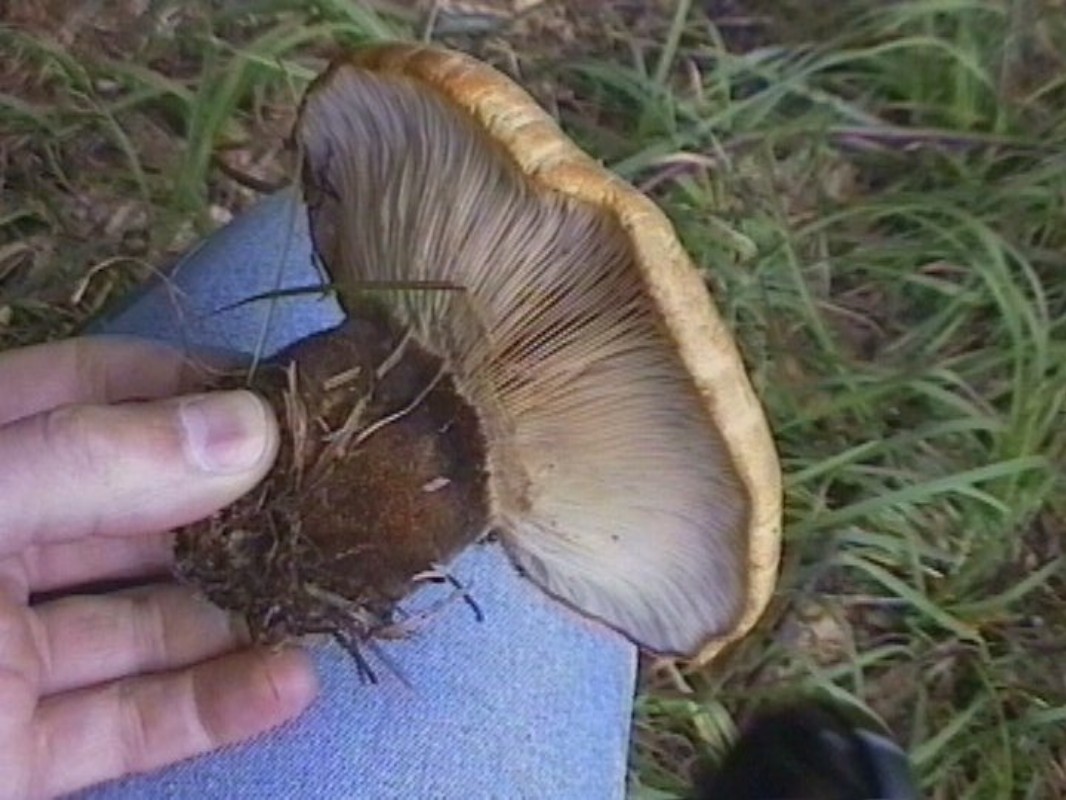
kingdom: Fungi
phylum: Basidiomycota
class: Agaricomycetes
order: Boletales
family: Tapinellaceae
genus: Tapinella
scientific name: Tapinella atrotomentosa
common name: sortfiltet viftesvamp
